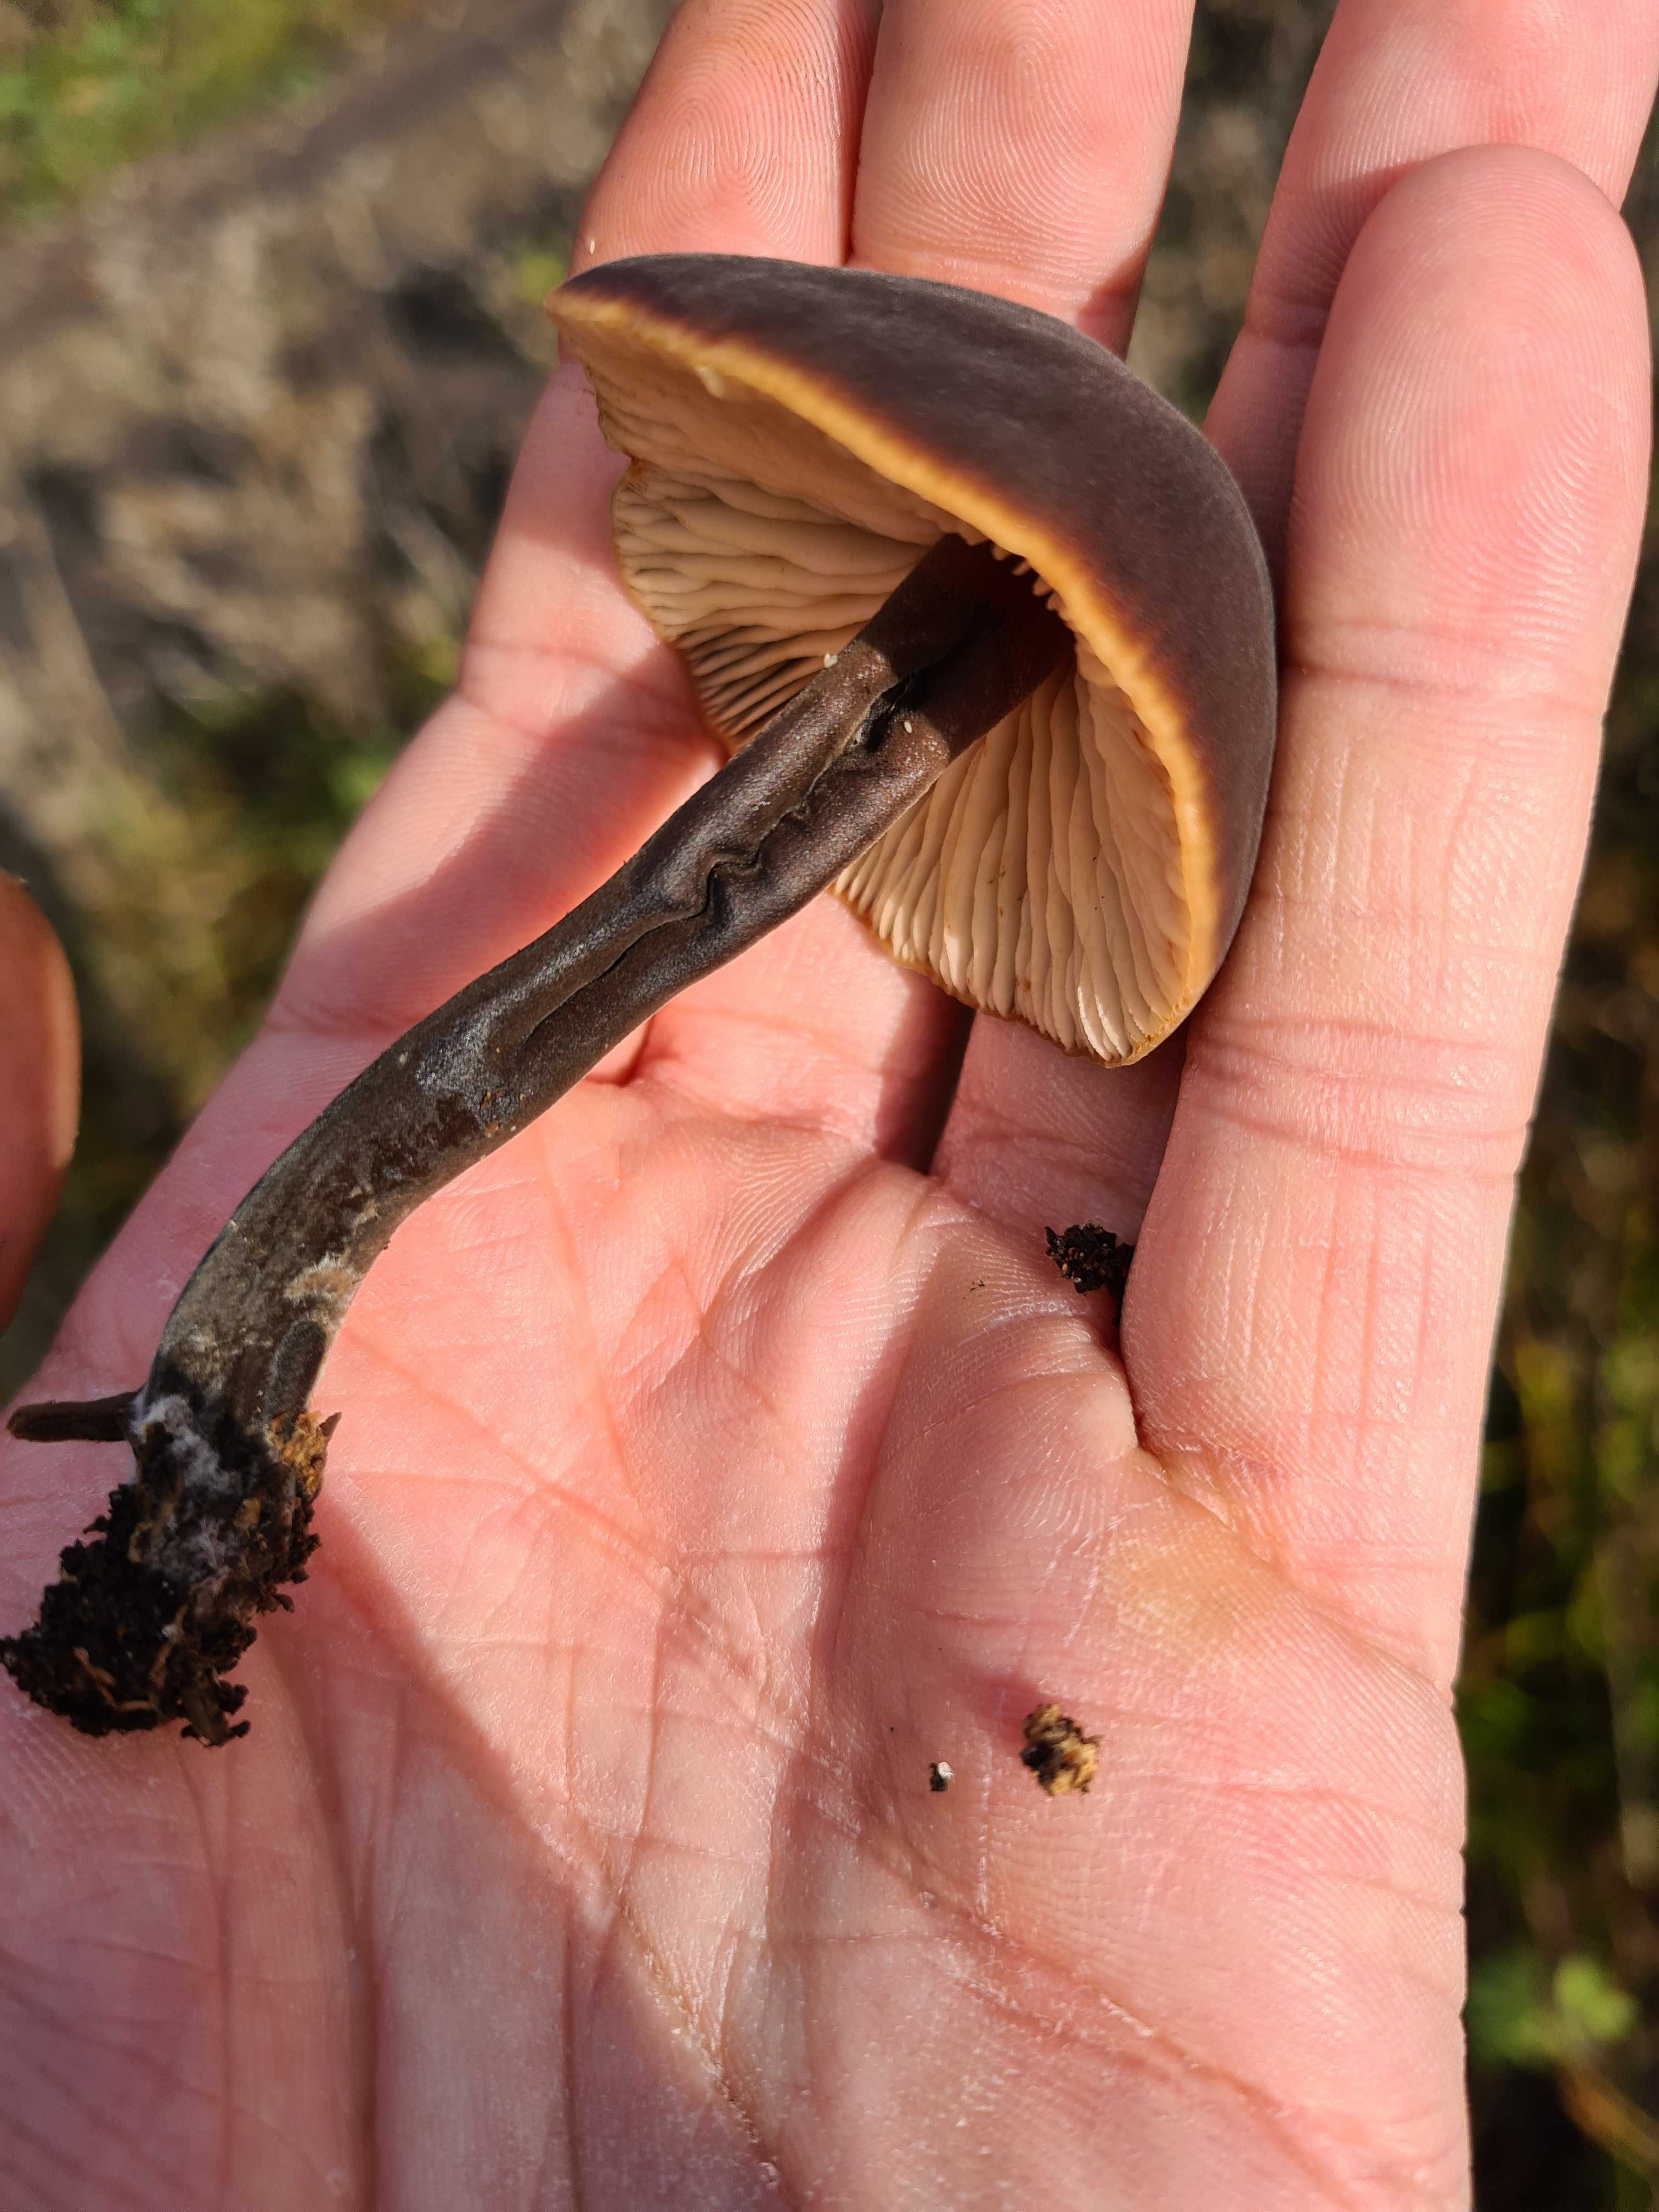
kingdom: Fungi
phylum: Basidiomycota
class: Agaricomycetes
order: Agaricales
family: Macrocystidiaceae
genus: Macrocystidia
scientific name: Macrocystidia cucumis
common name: agurkehat
